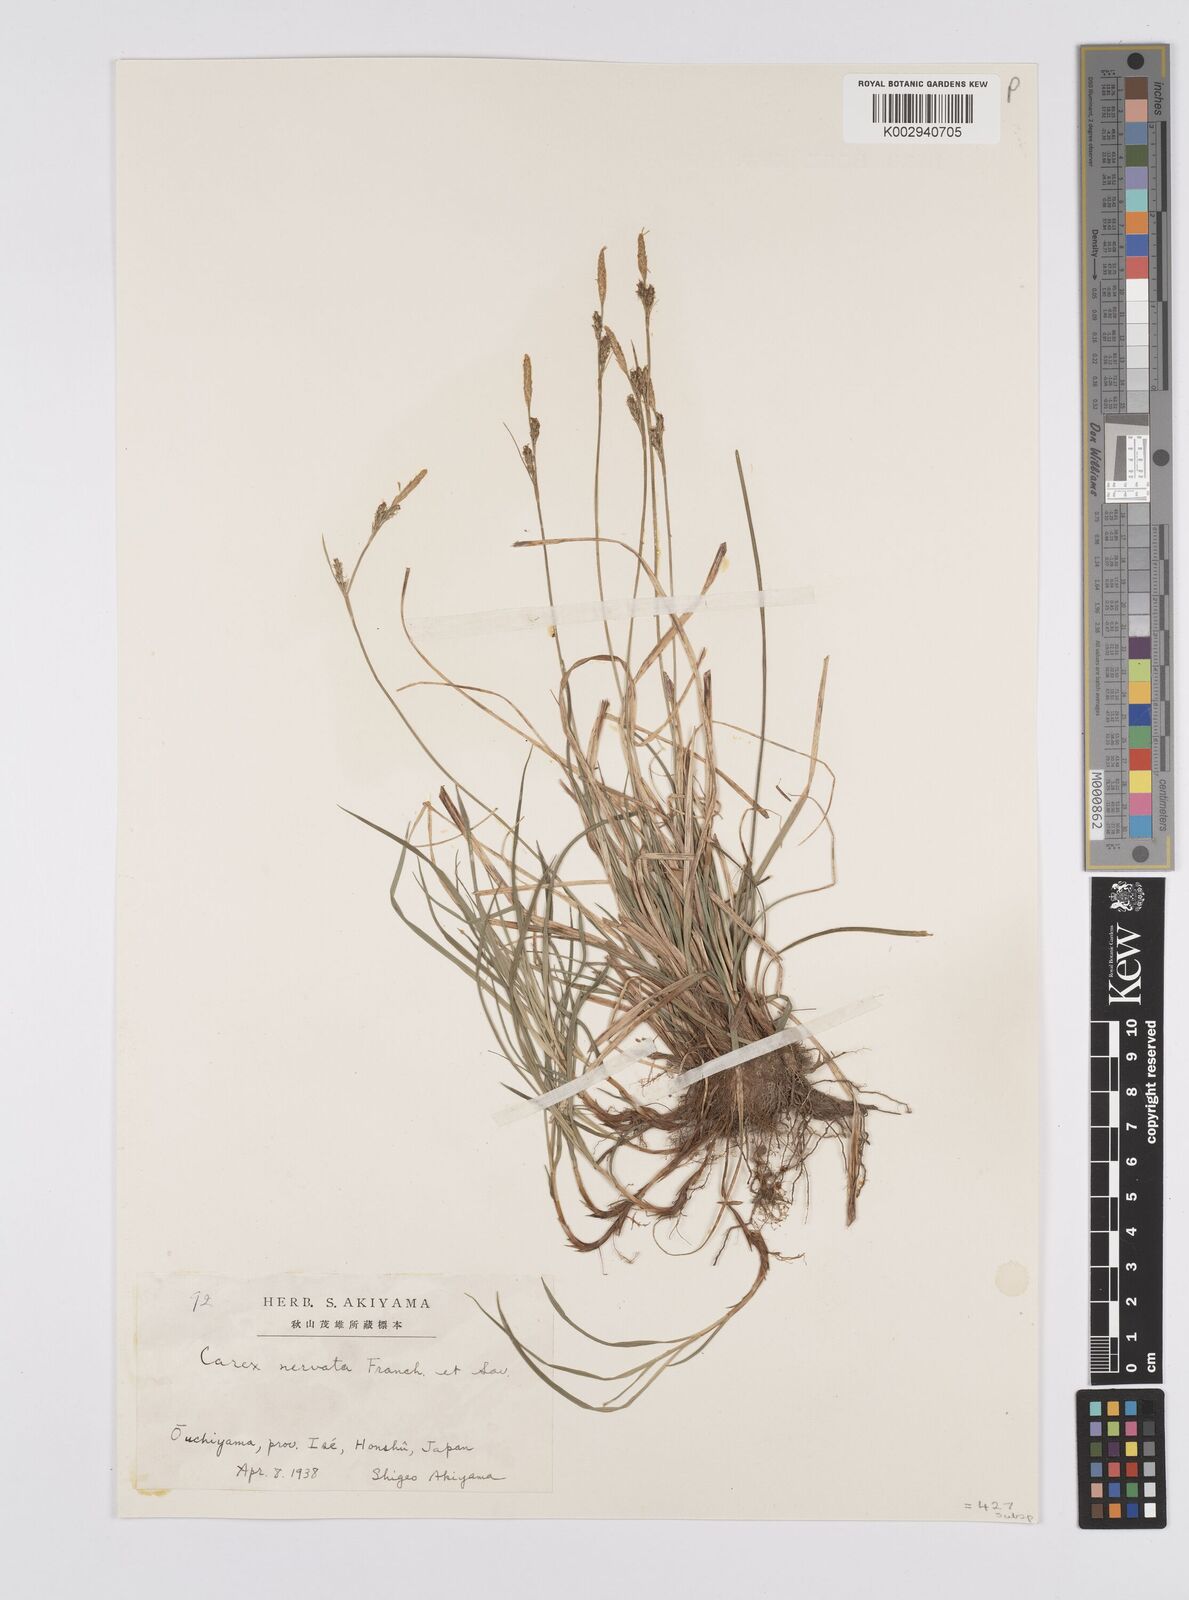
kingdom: Plantae
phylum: Tracheophyta
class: Liliopsida
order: Poales
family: Cyperaceae
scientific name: Cyperaceae
